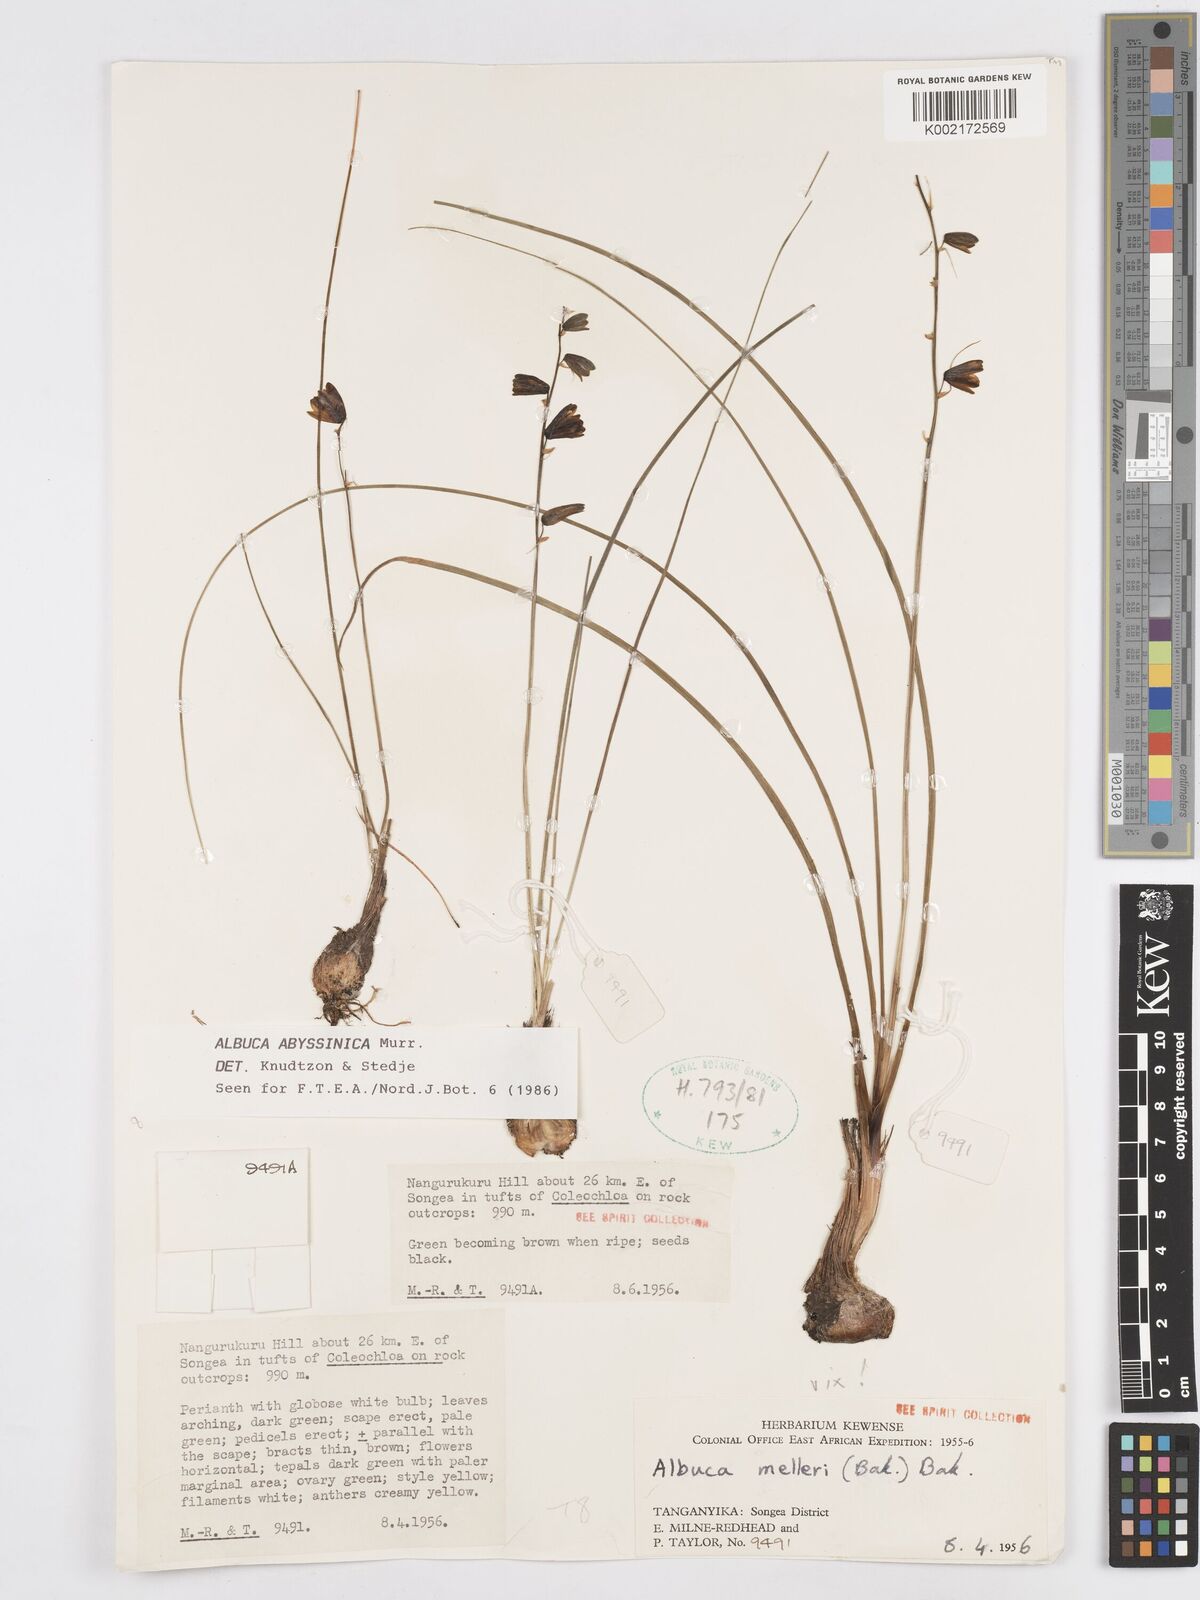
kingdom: Plantae
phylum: Tracheophyta
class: Liliopsida
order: Asparagales
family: Asparagaceae
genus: Albuca
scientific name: Albuca abyssinica
